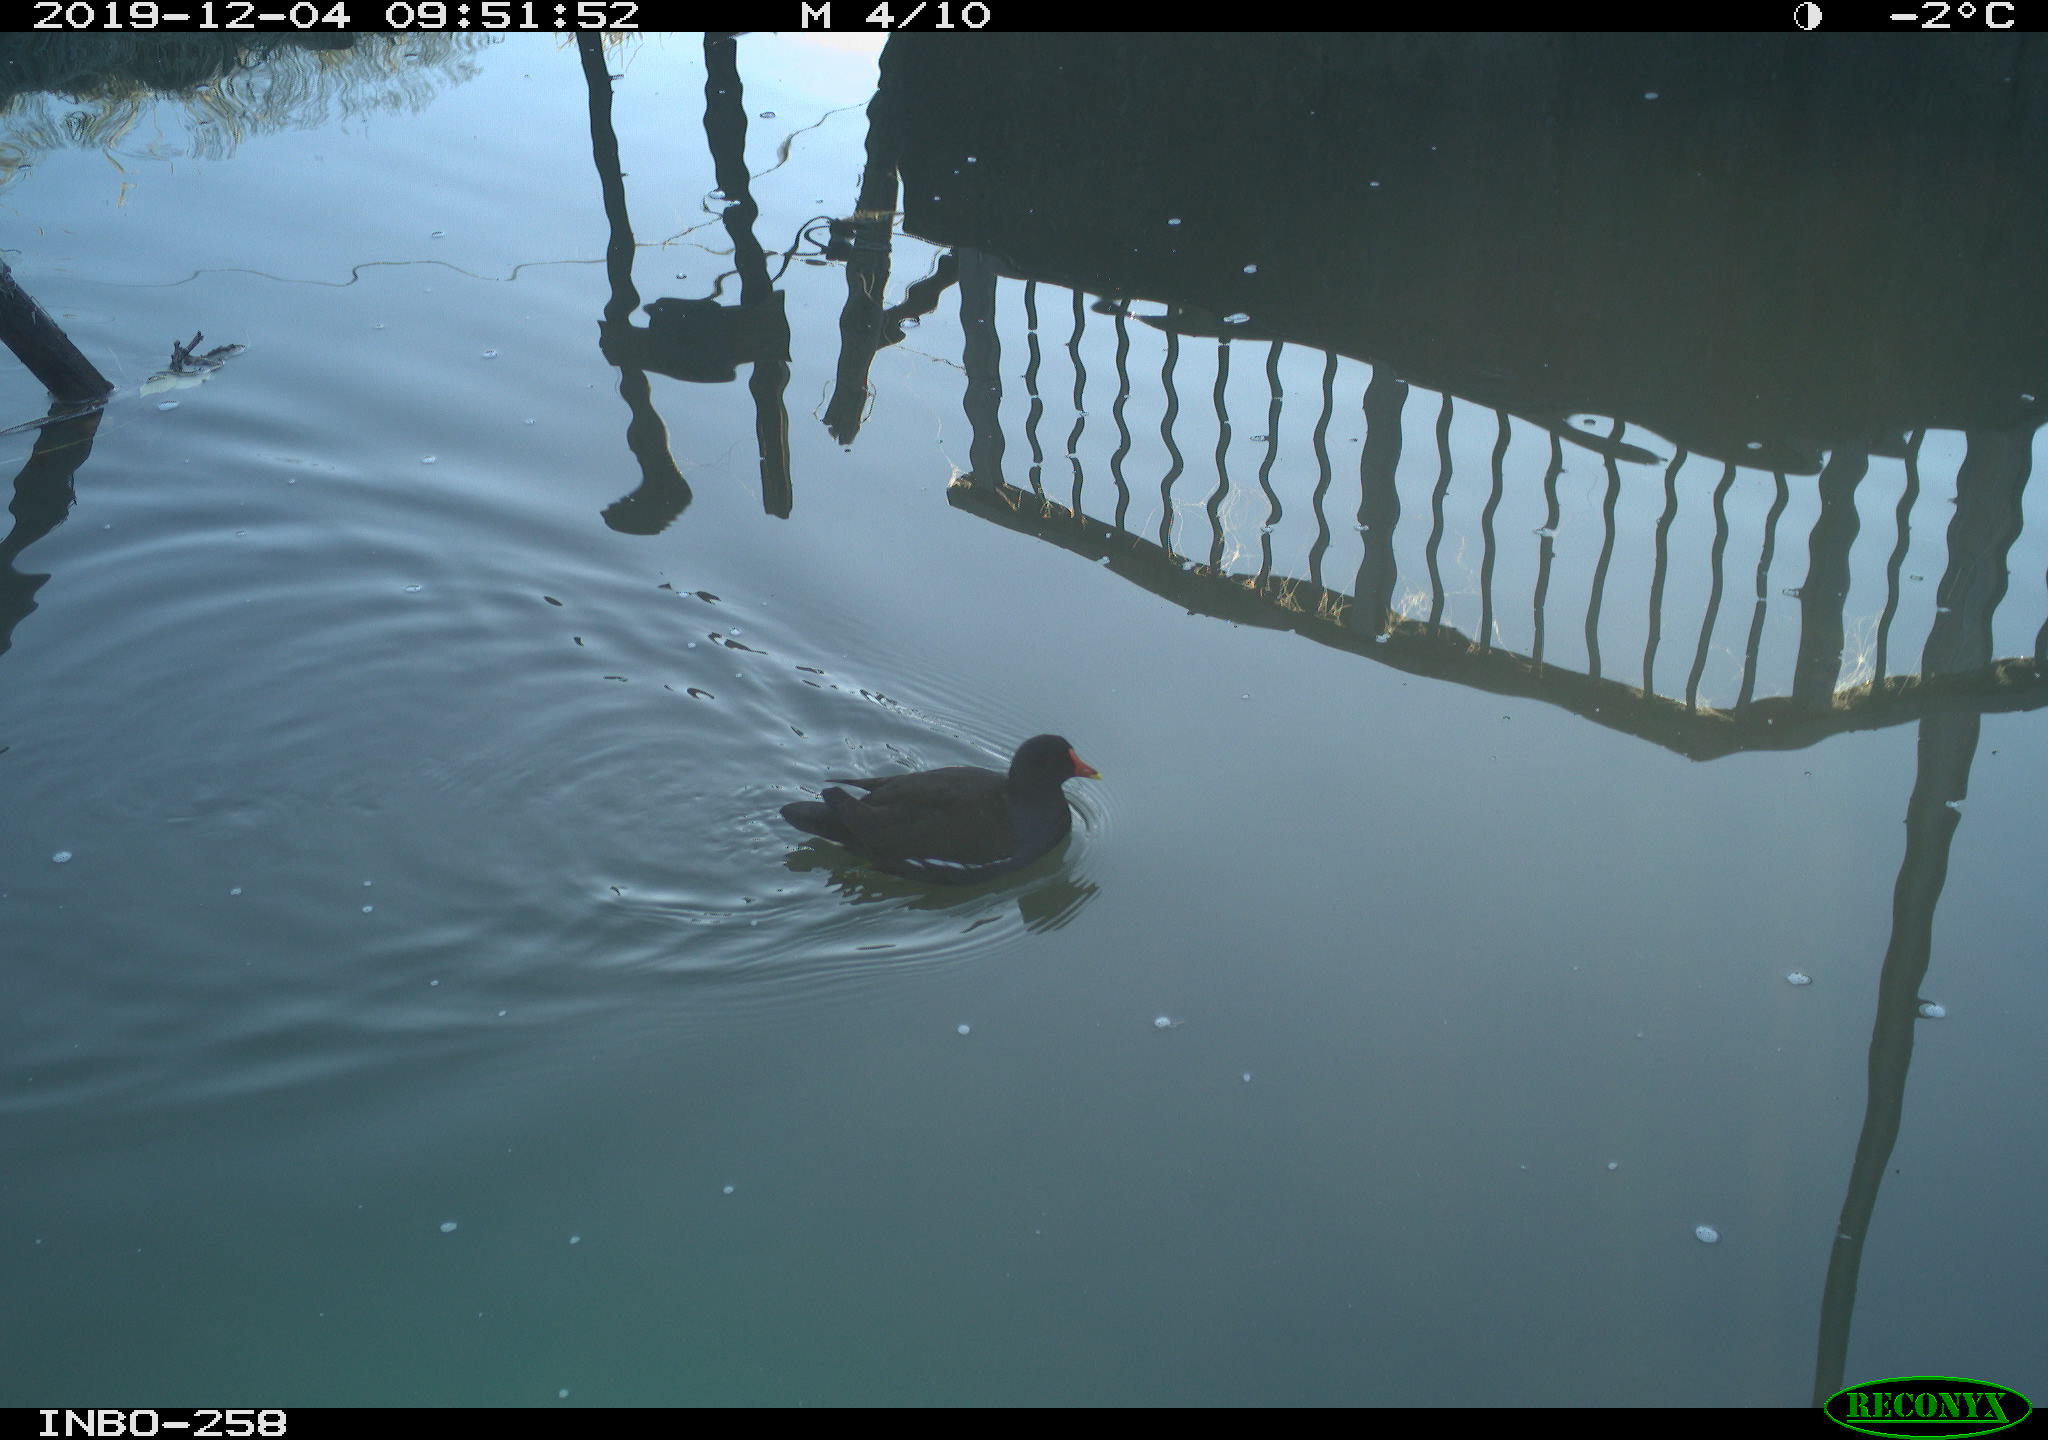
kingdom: Animalia
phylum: Chordata
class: Aves
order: Gruiformes
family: Rallidae
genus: Gallinula
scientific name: Gallinula chloropus
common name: Common moorhen
